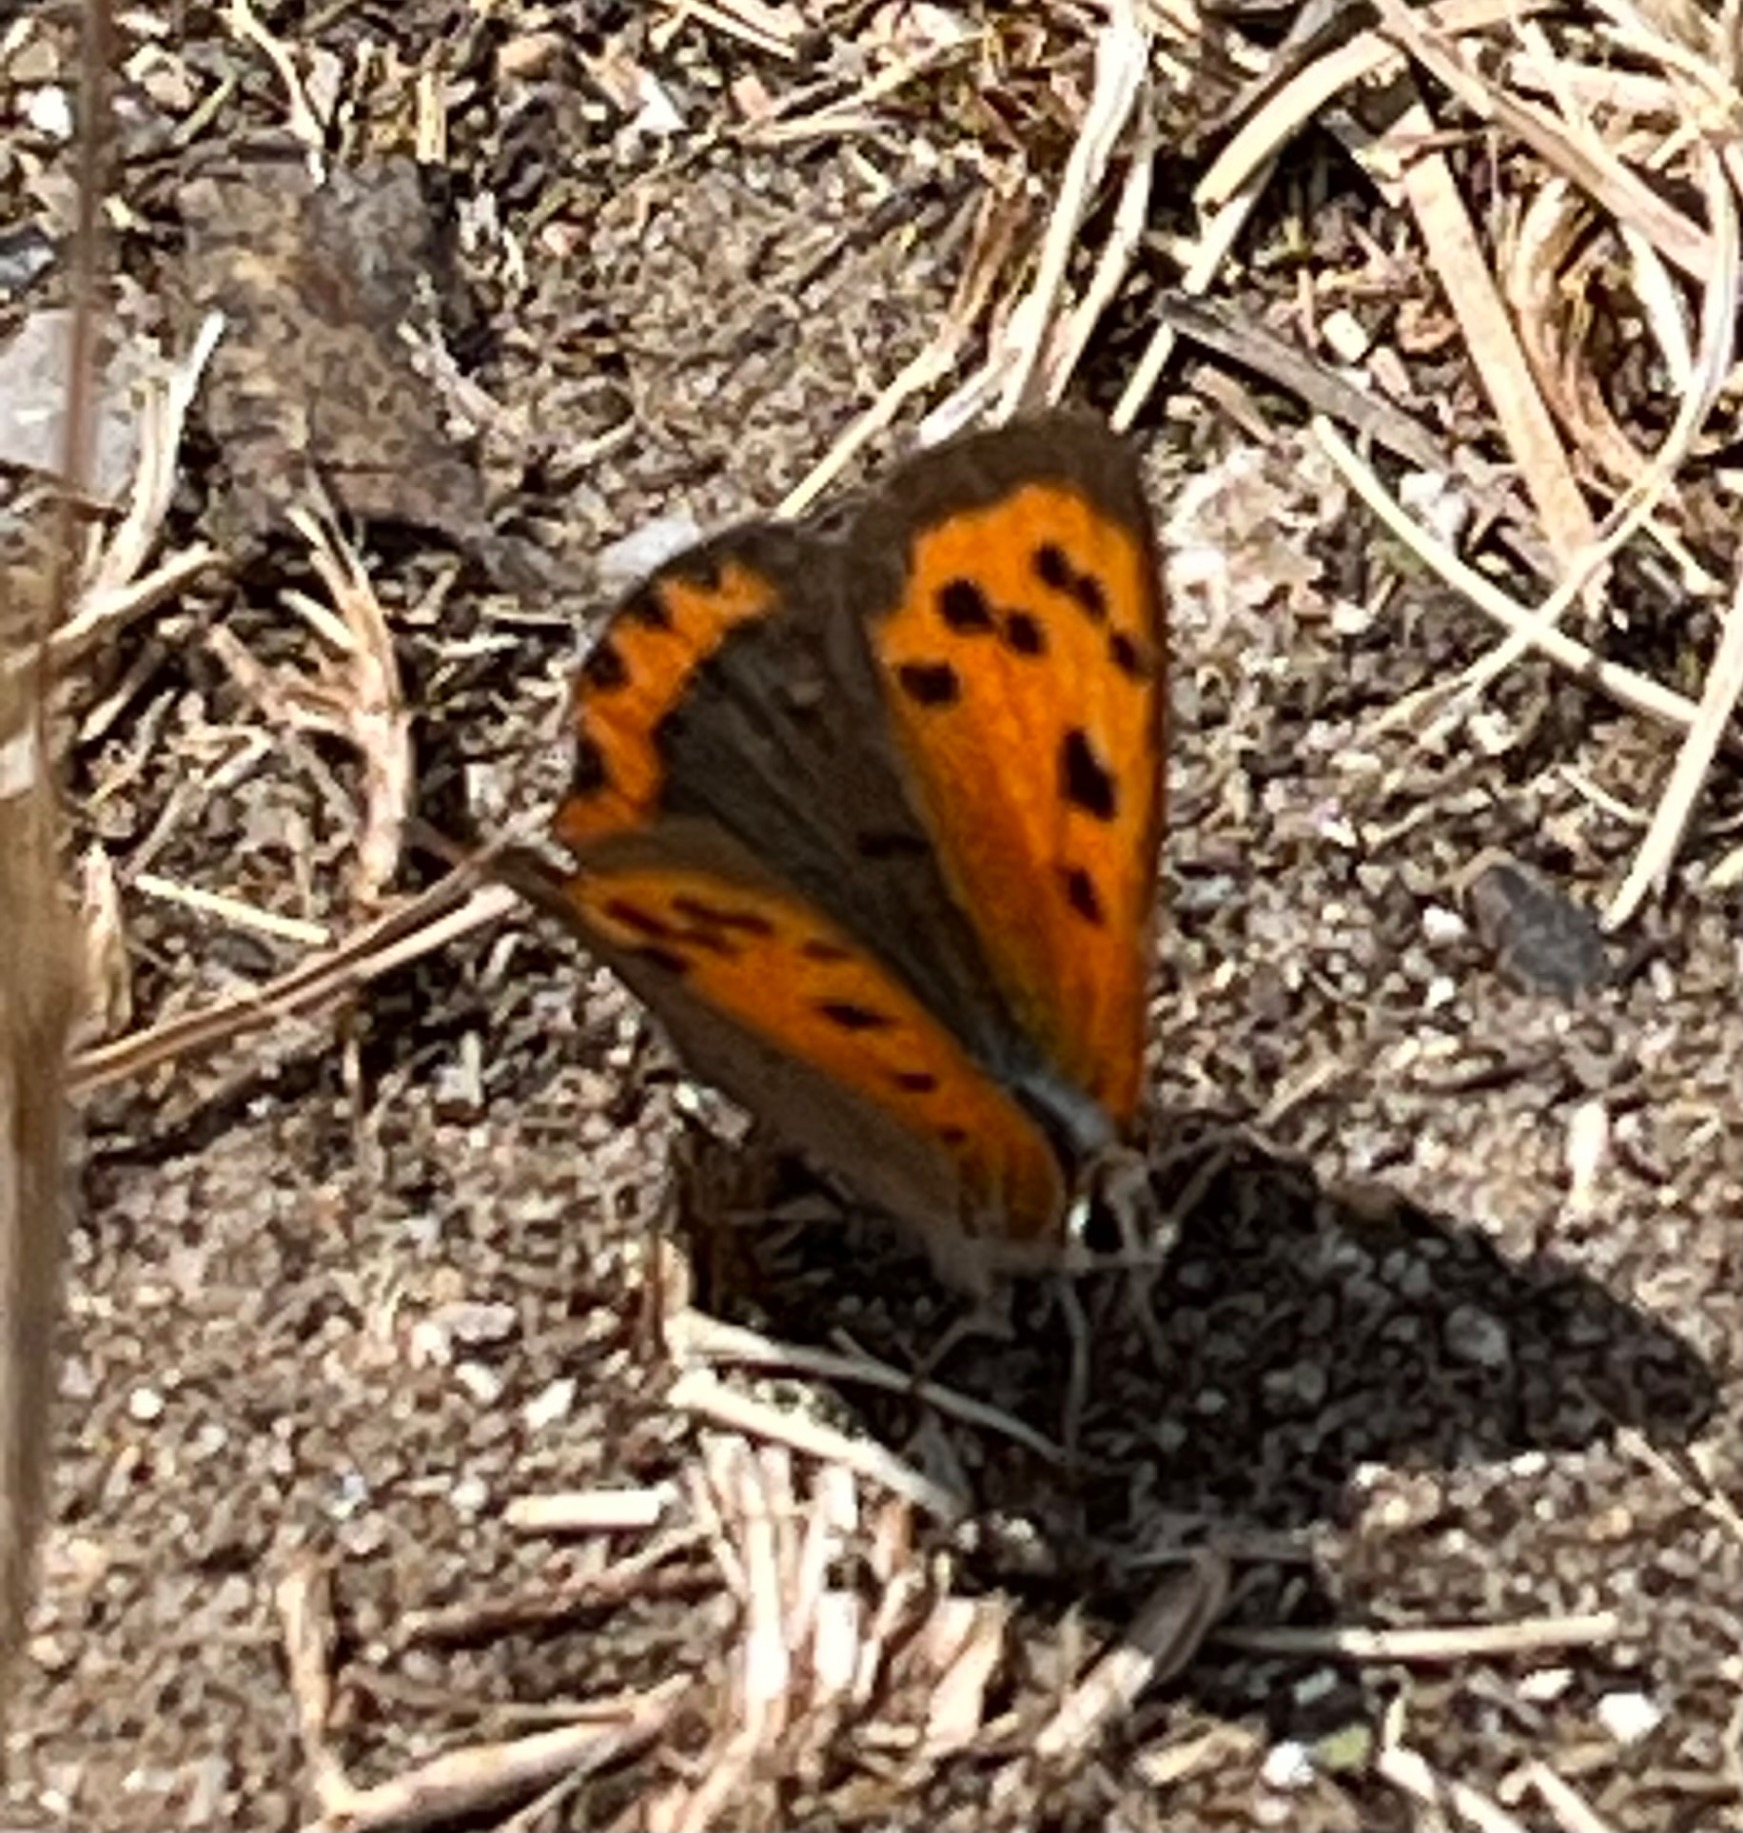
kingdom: Animalia
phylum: Arthropoda
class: Insecta
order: Lepidoptera
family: Lycaenidae
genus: Lycaena
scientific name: Lycaena phlaeas
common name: Lille ildfugl
